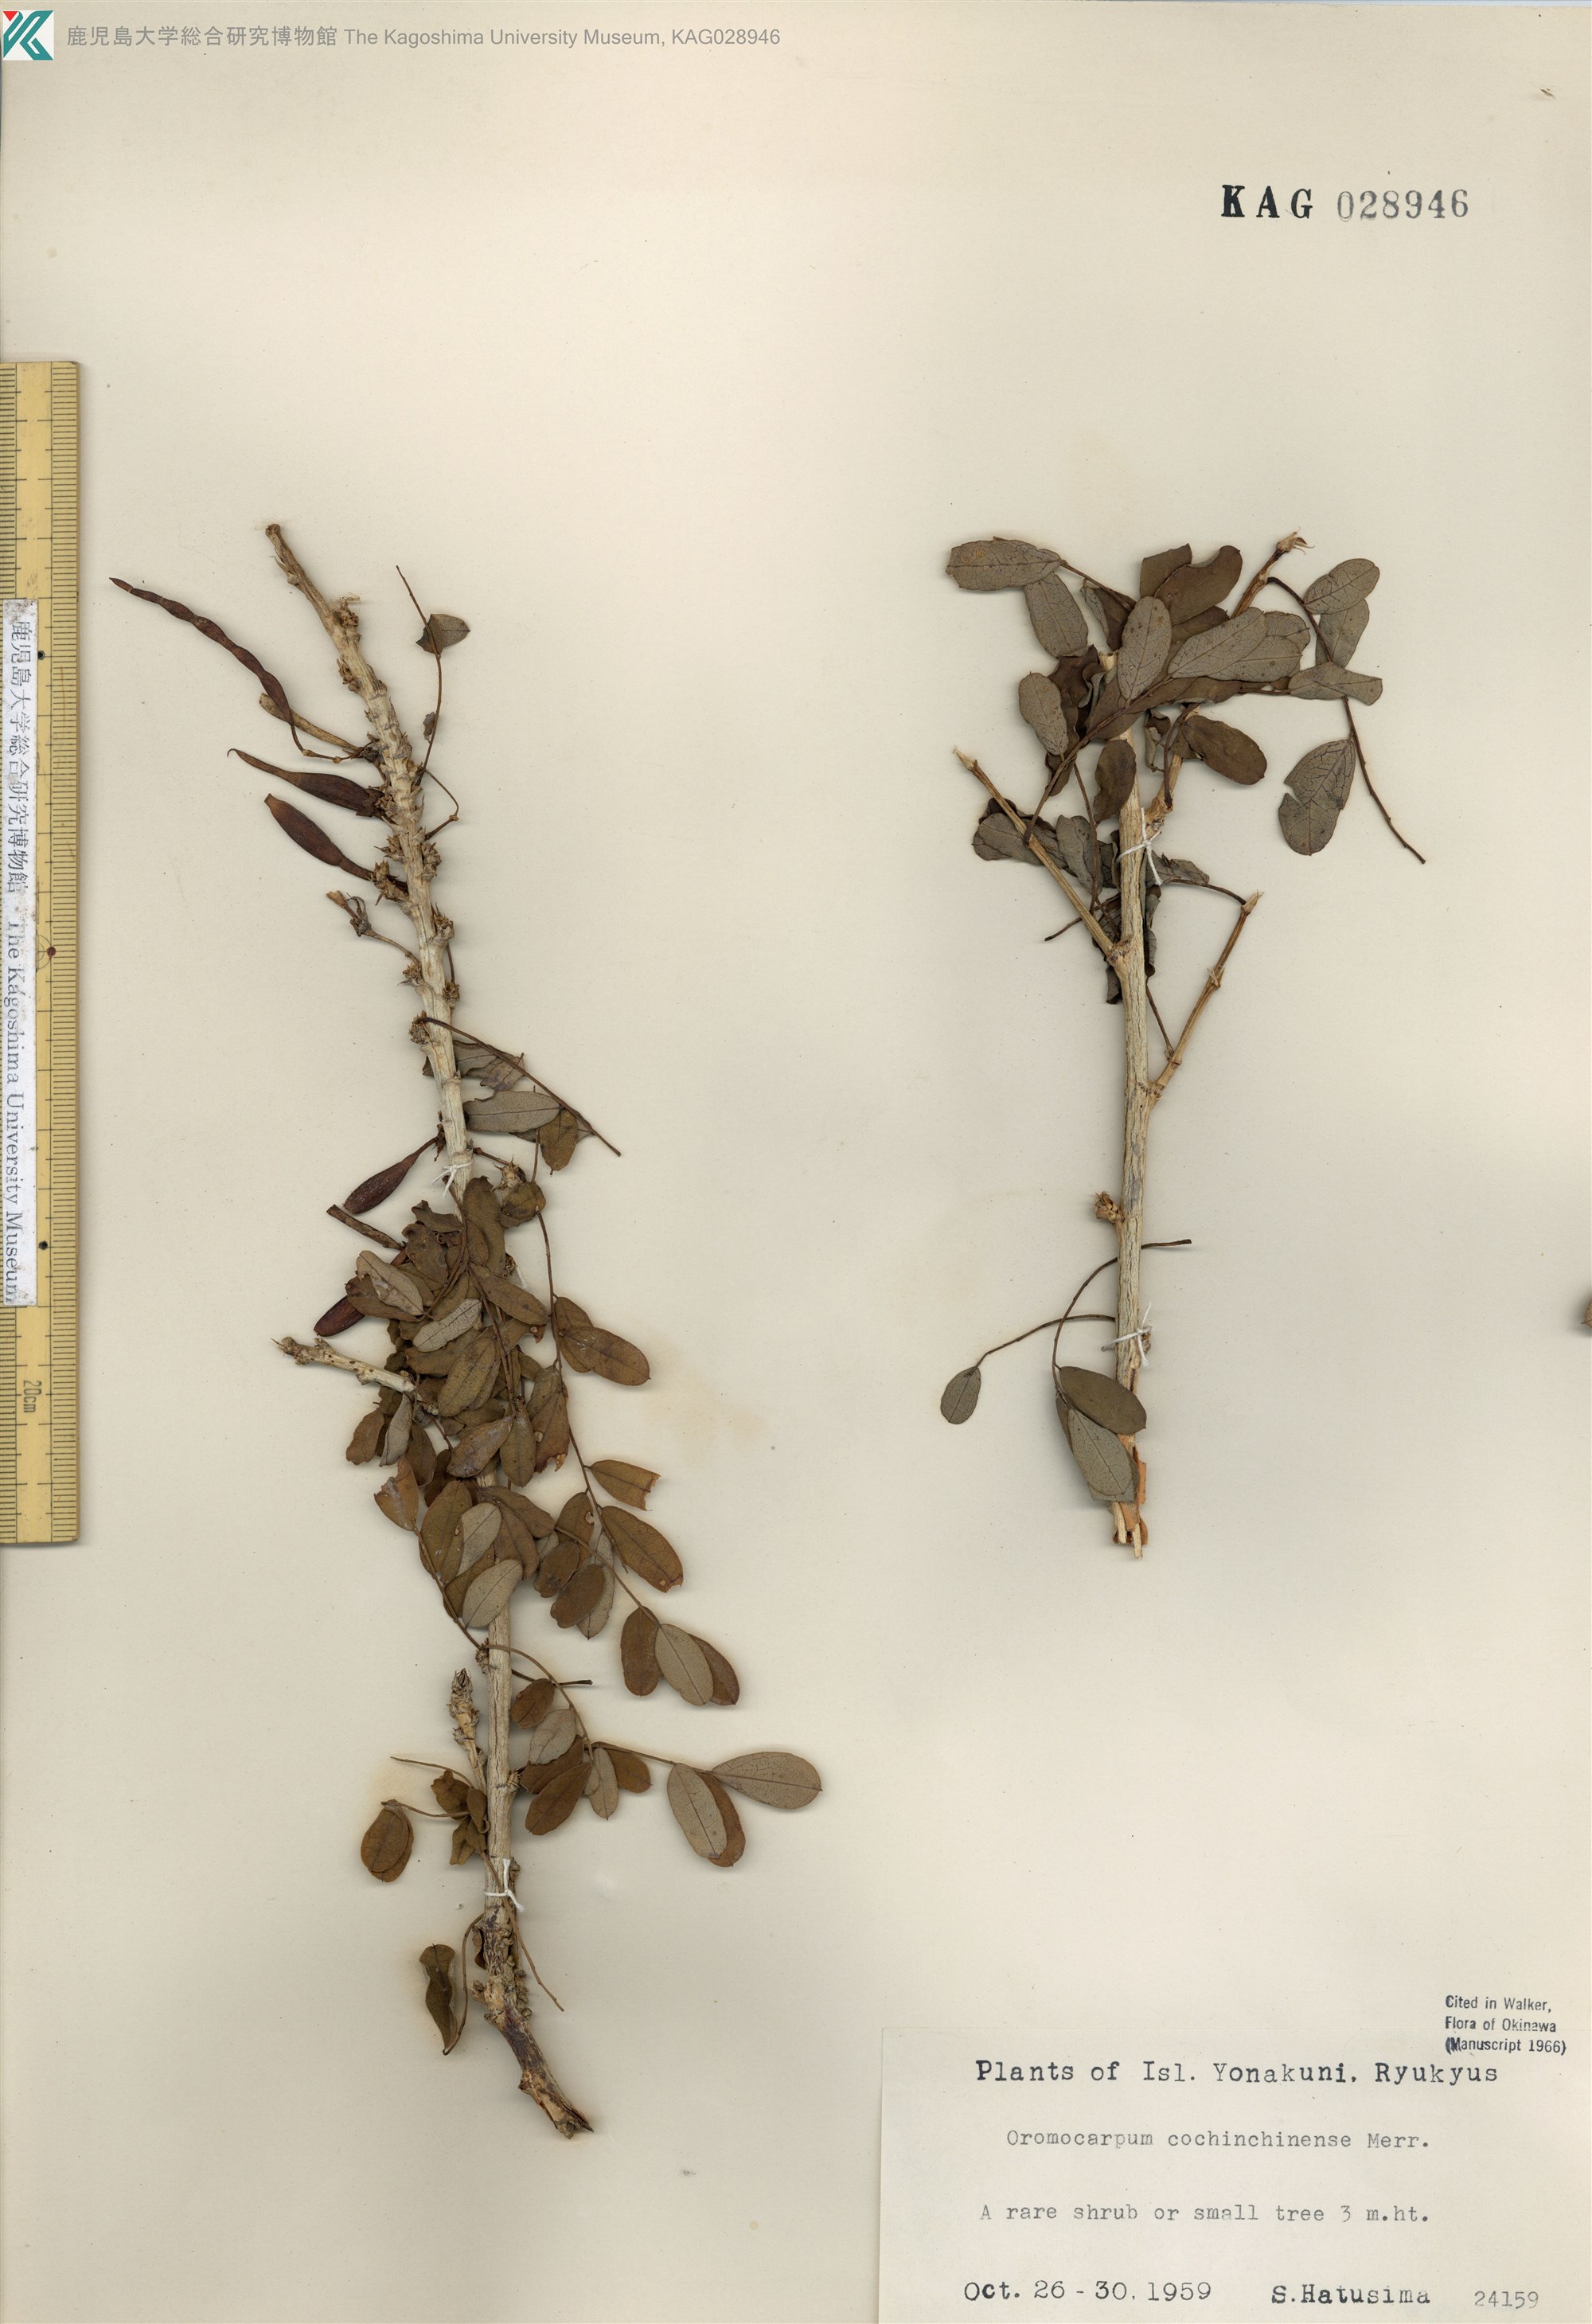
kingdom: Plantae
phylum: Tracheophyta
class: Magnoliopsida
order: Fabales
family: Fabaceae
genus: Ormocarpum
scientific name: Ormocarpum cochinchinense
